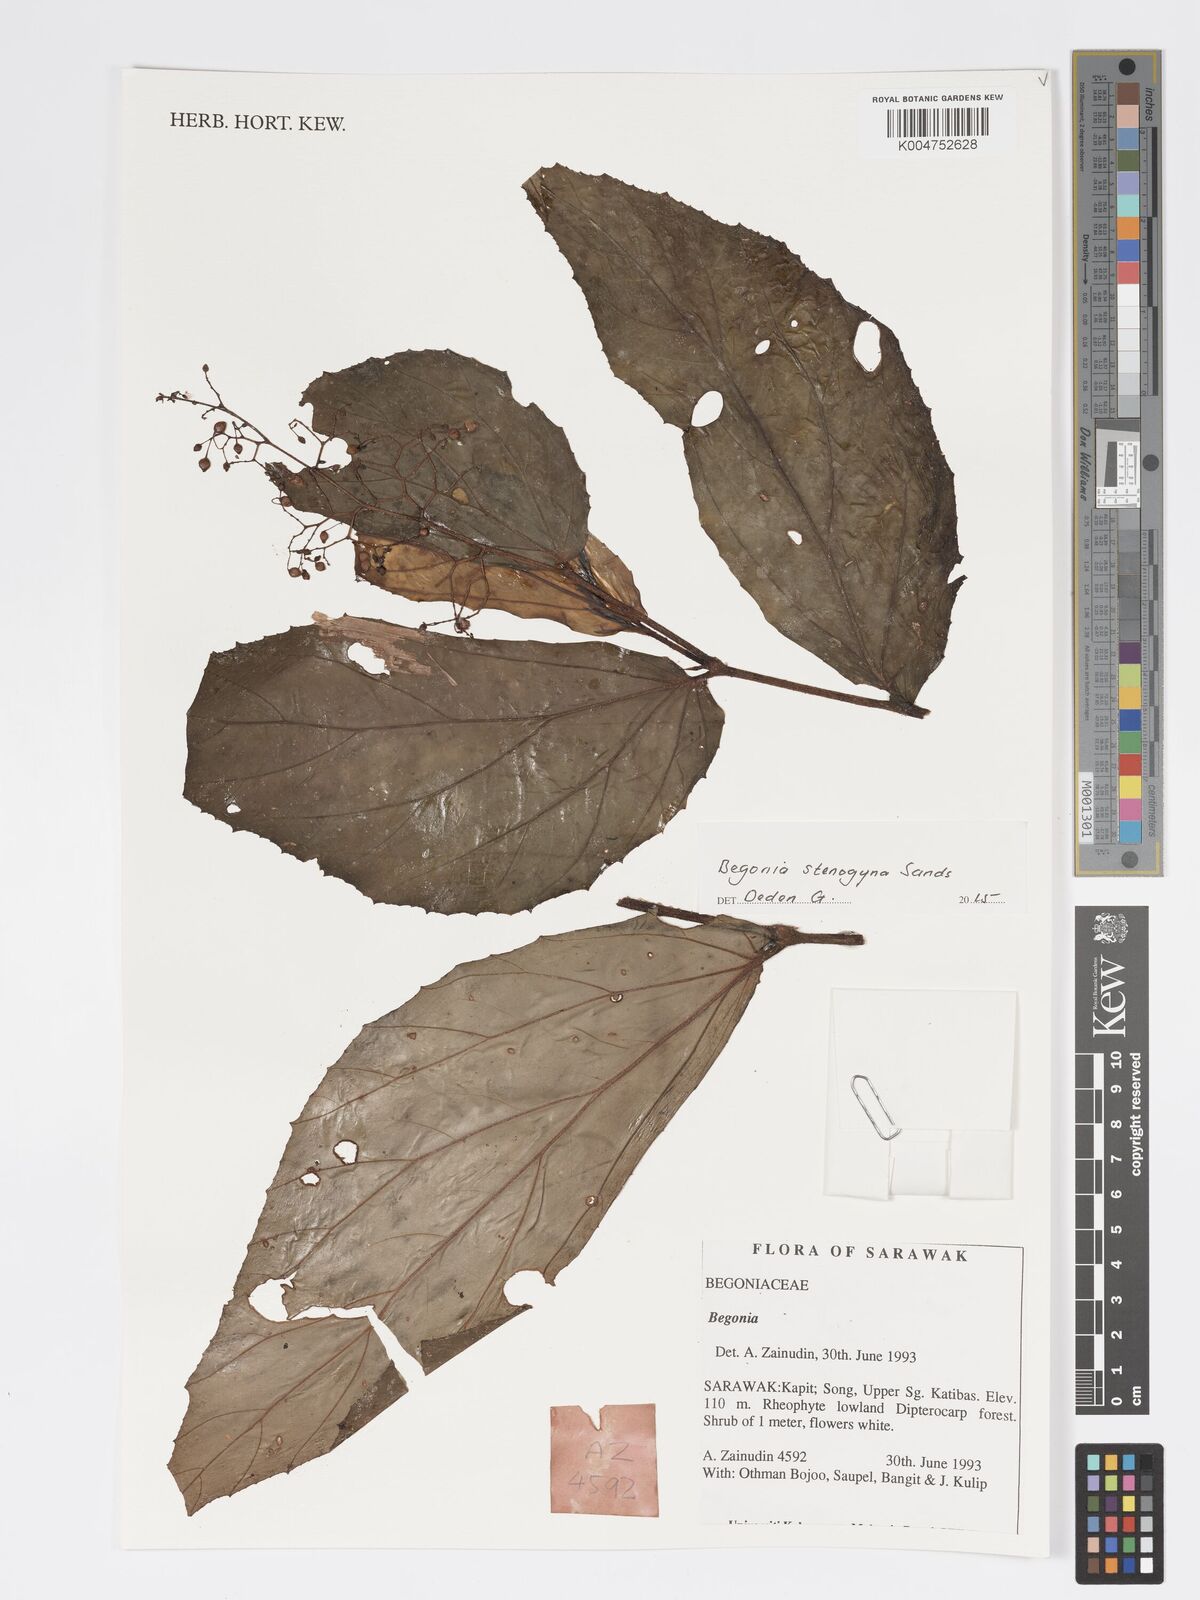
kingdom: Plantae
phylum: Tracheophyta
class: Magnoliopsida
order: Cucurbitales
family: Begoniaceae
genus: Begonia
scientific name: Begonia stenogyna
